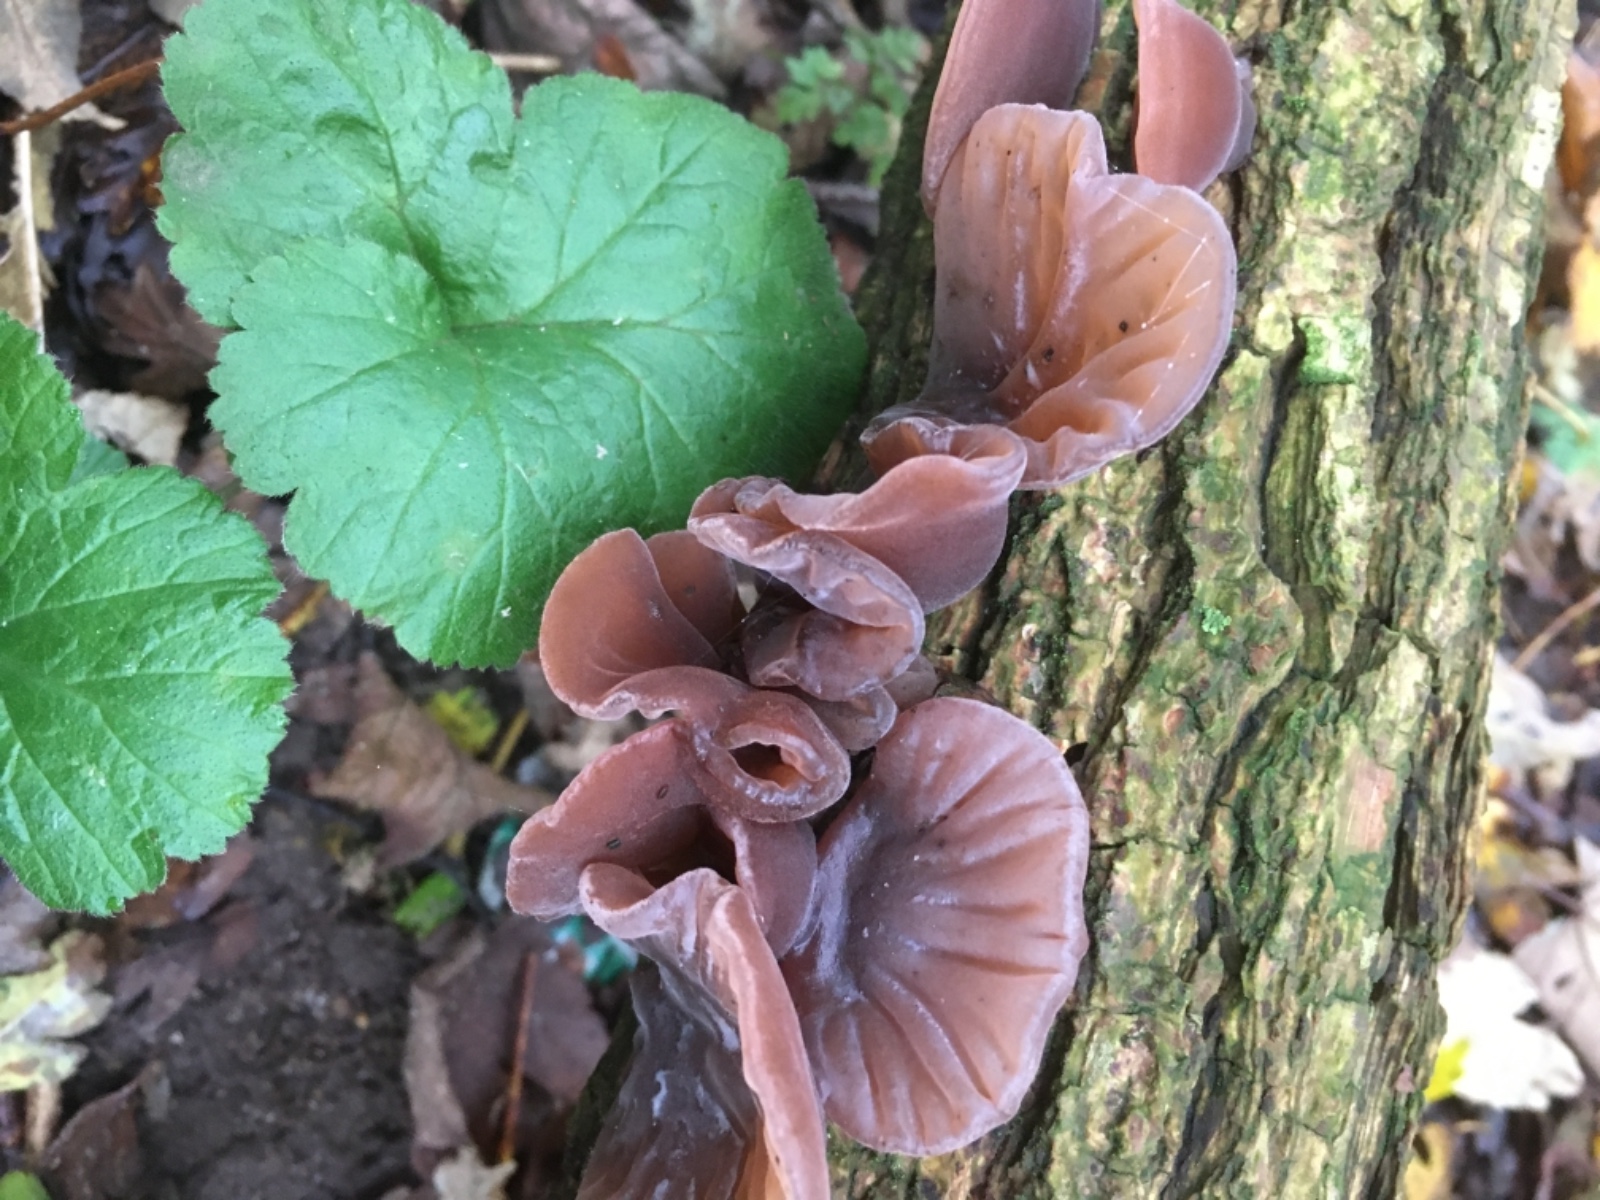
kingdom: Fungi
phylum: Basidiomycota
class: Agaricomycetes
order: Auriculariales
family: Auriculariaceae
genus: Auricularia
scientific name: Auricularia auricula-judae
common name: almindelig judasøre
